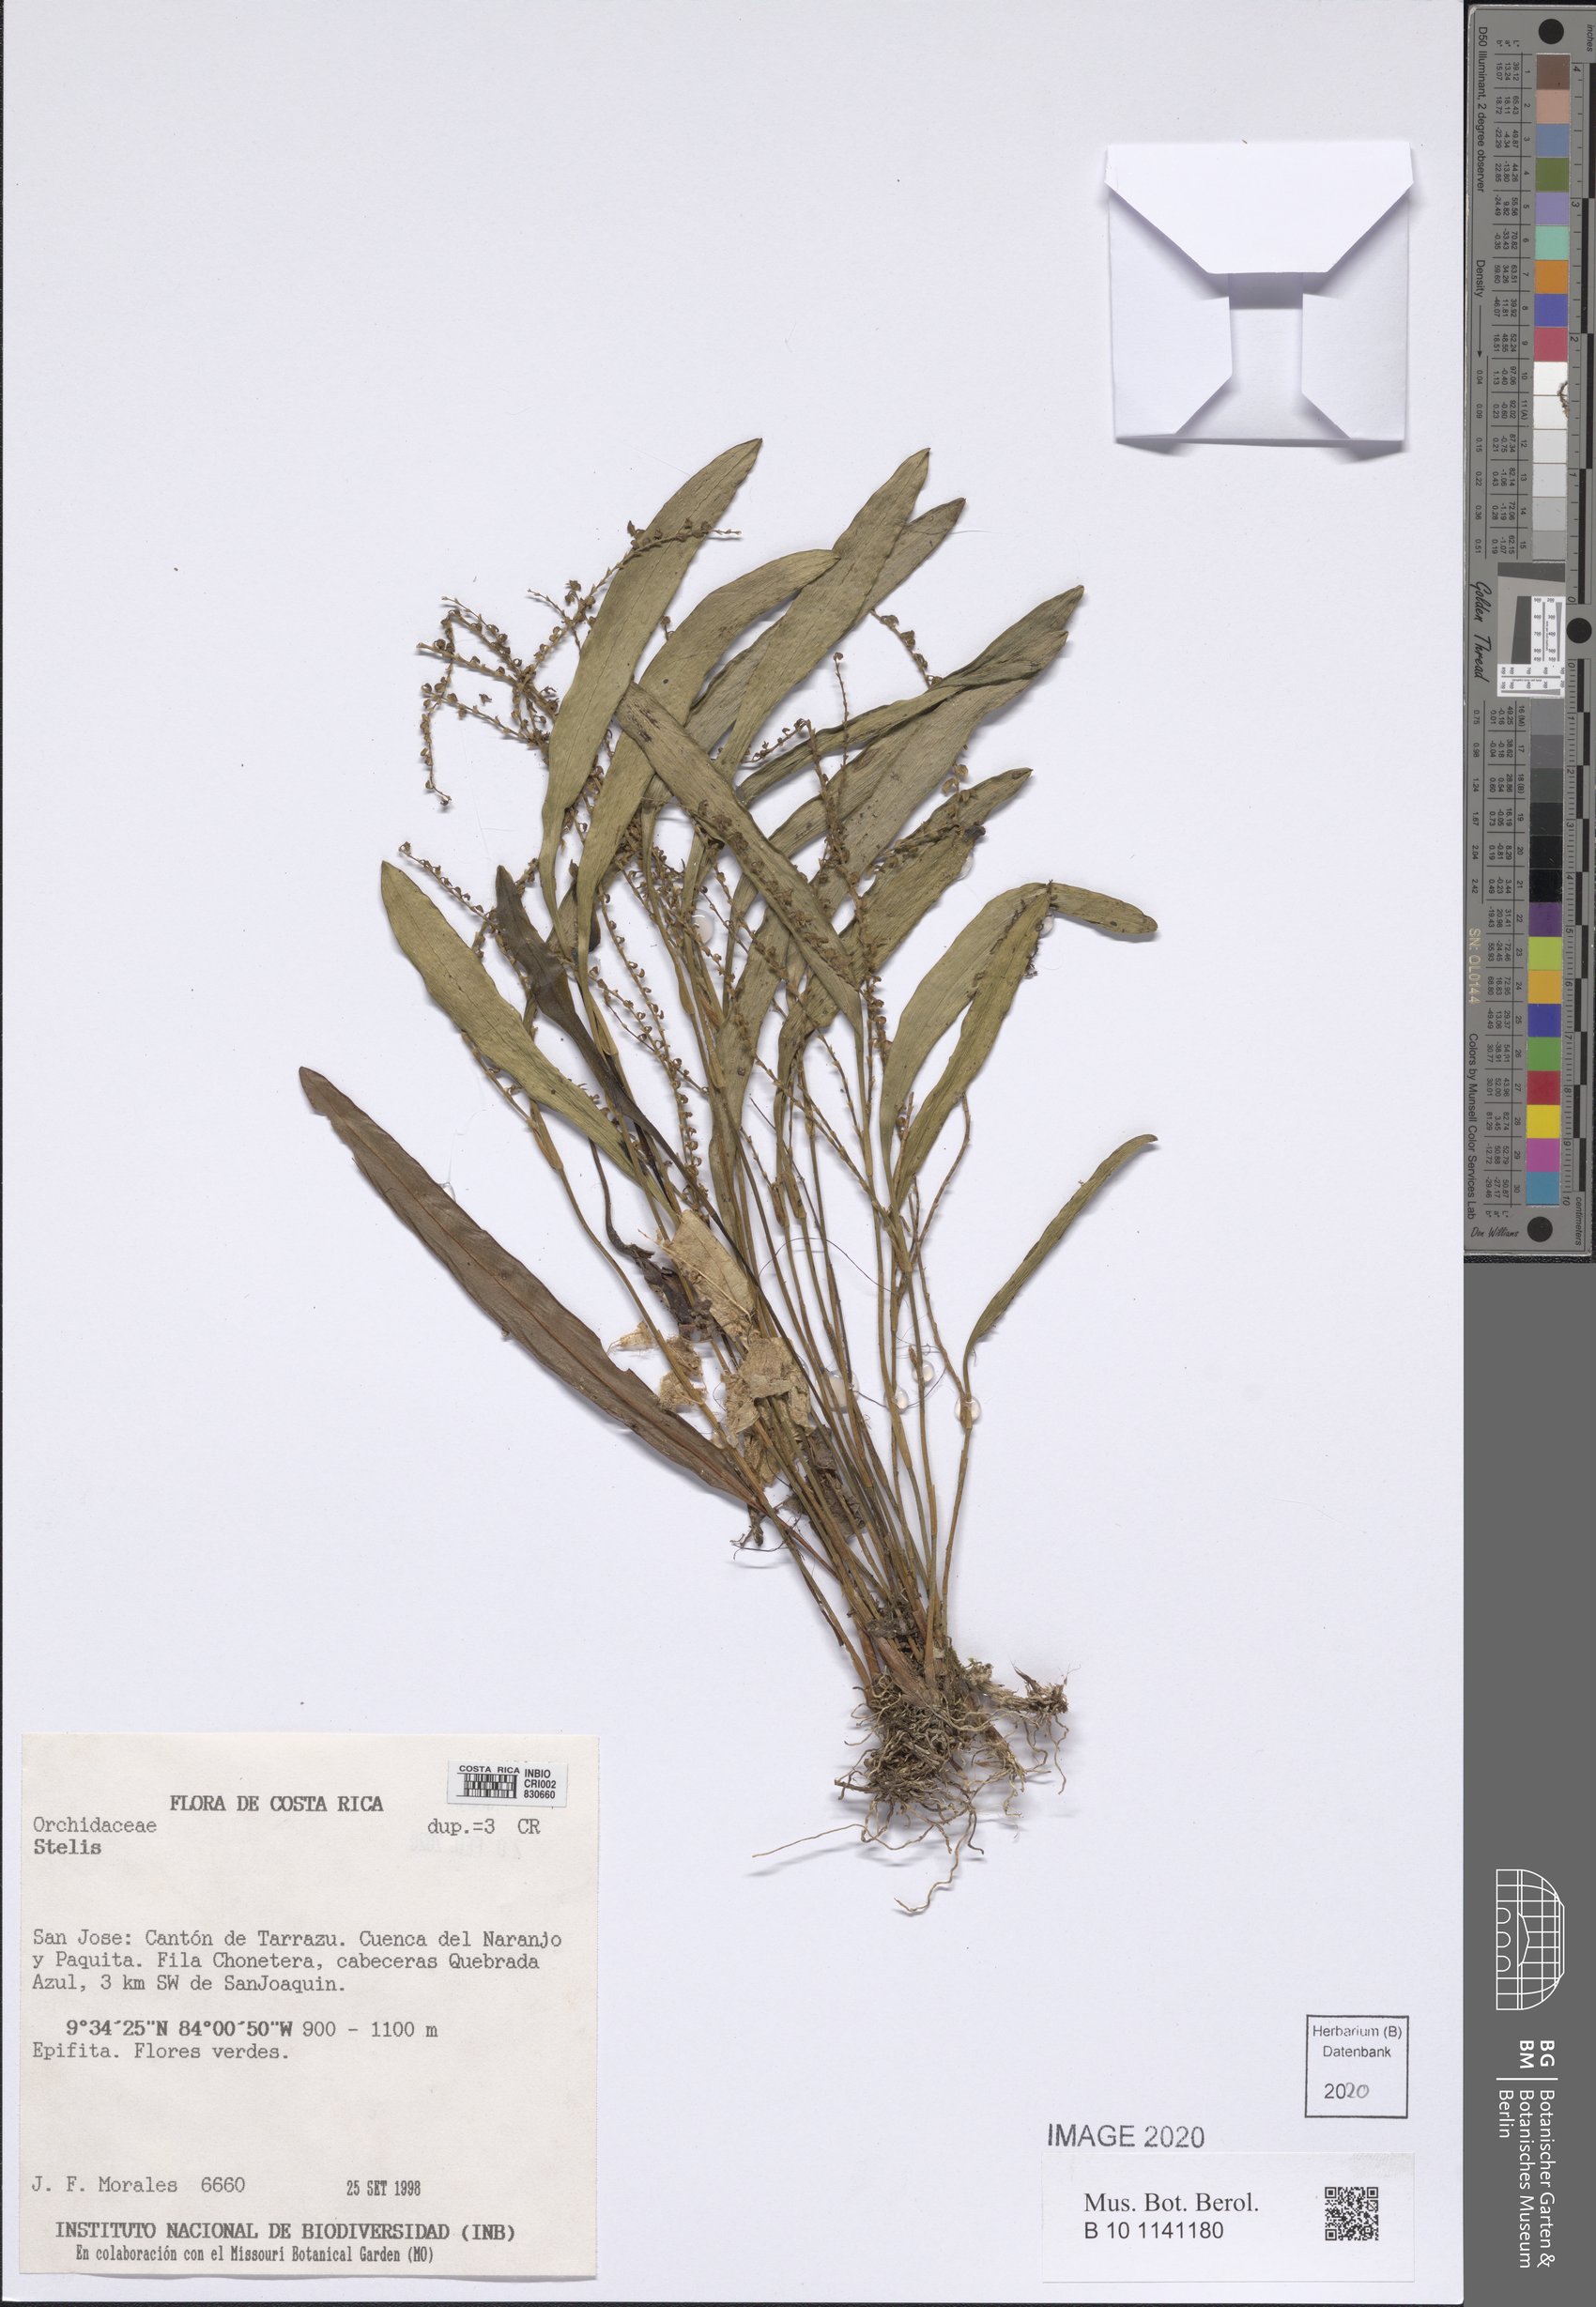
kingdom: Plantae
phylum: Tracheophyta
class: Liliopsida
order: Asparagales
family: Orchidaceae
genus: Stelis
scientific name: Stelis
